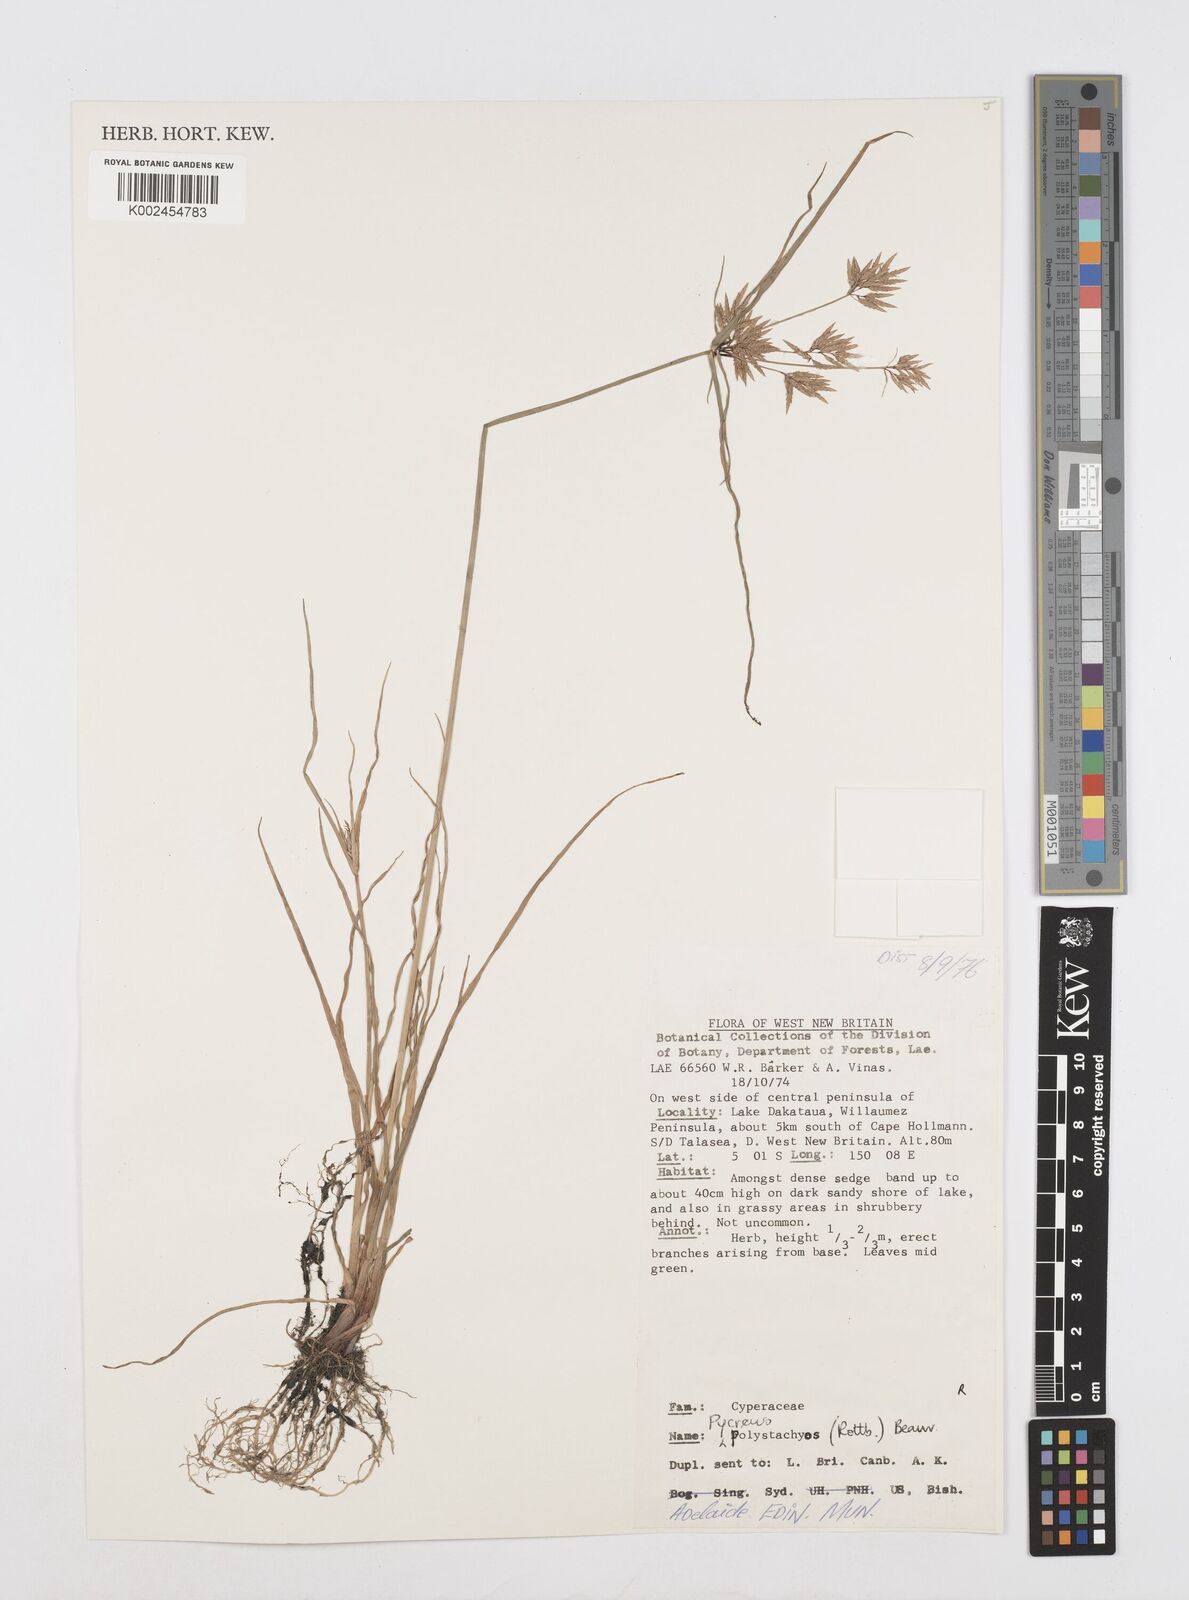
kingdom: Plantae
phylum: Tracheophyta
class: Liliopsida
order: Poales
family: Cyperaceae
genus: Cyperus
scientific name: Cyperus polystachyos
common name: Bunchy flat sedge
